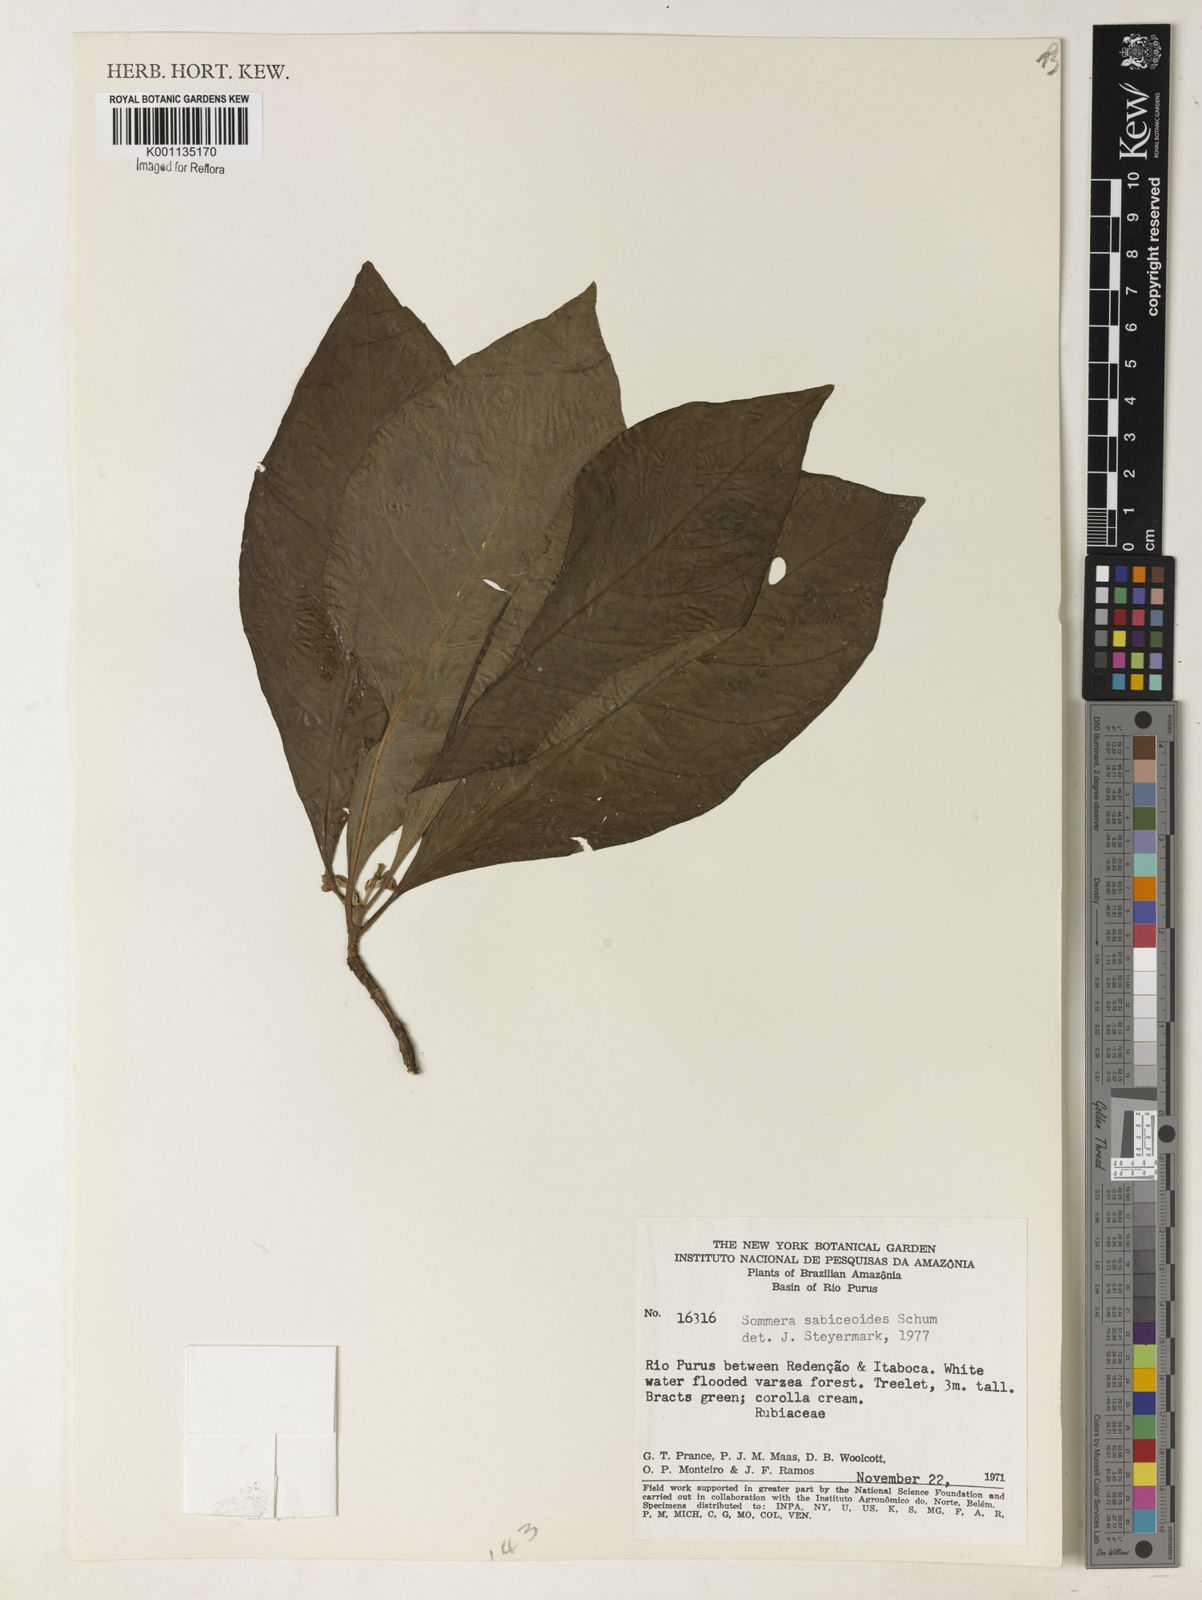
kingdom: Plantae
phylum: Tracheophyta
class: Magnoliopsida
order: Gentianales
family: Rubiaceae
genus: Sommera
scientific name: Sommera sabiceoides
